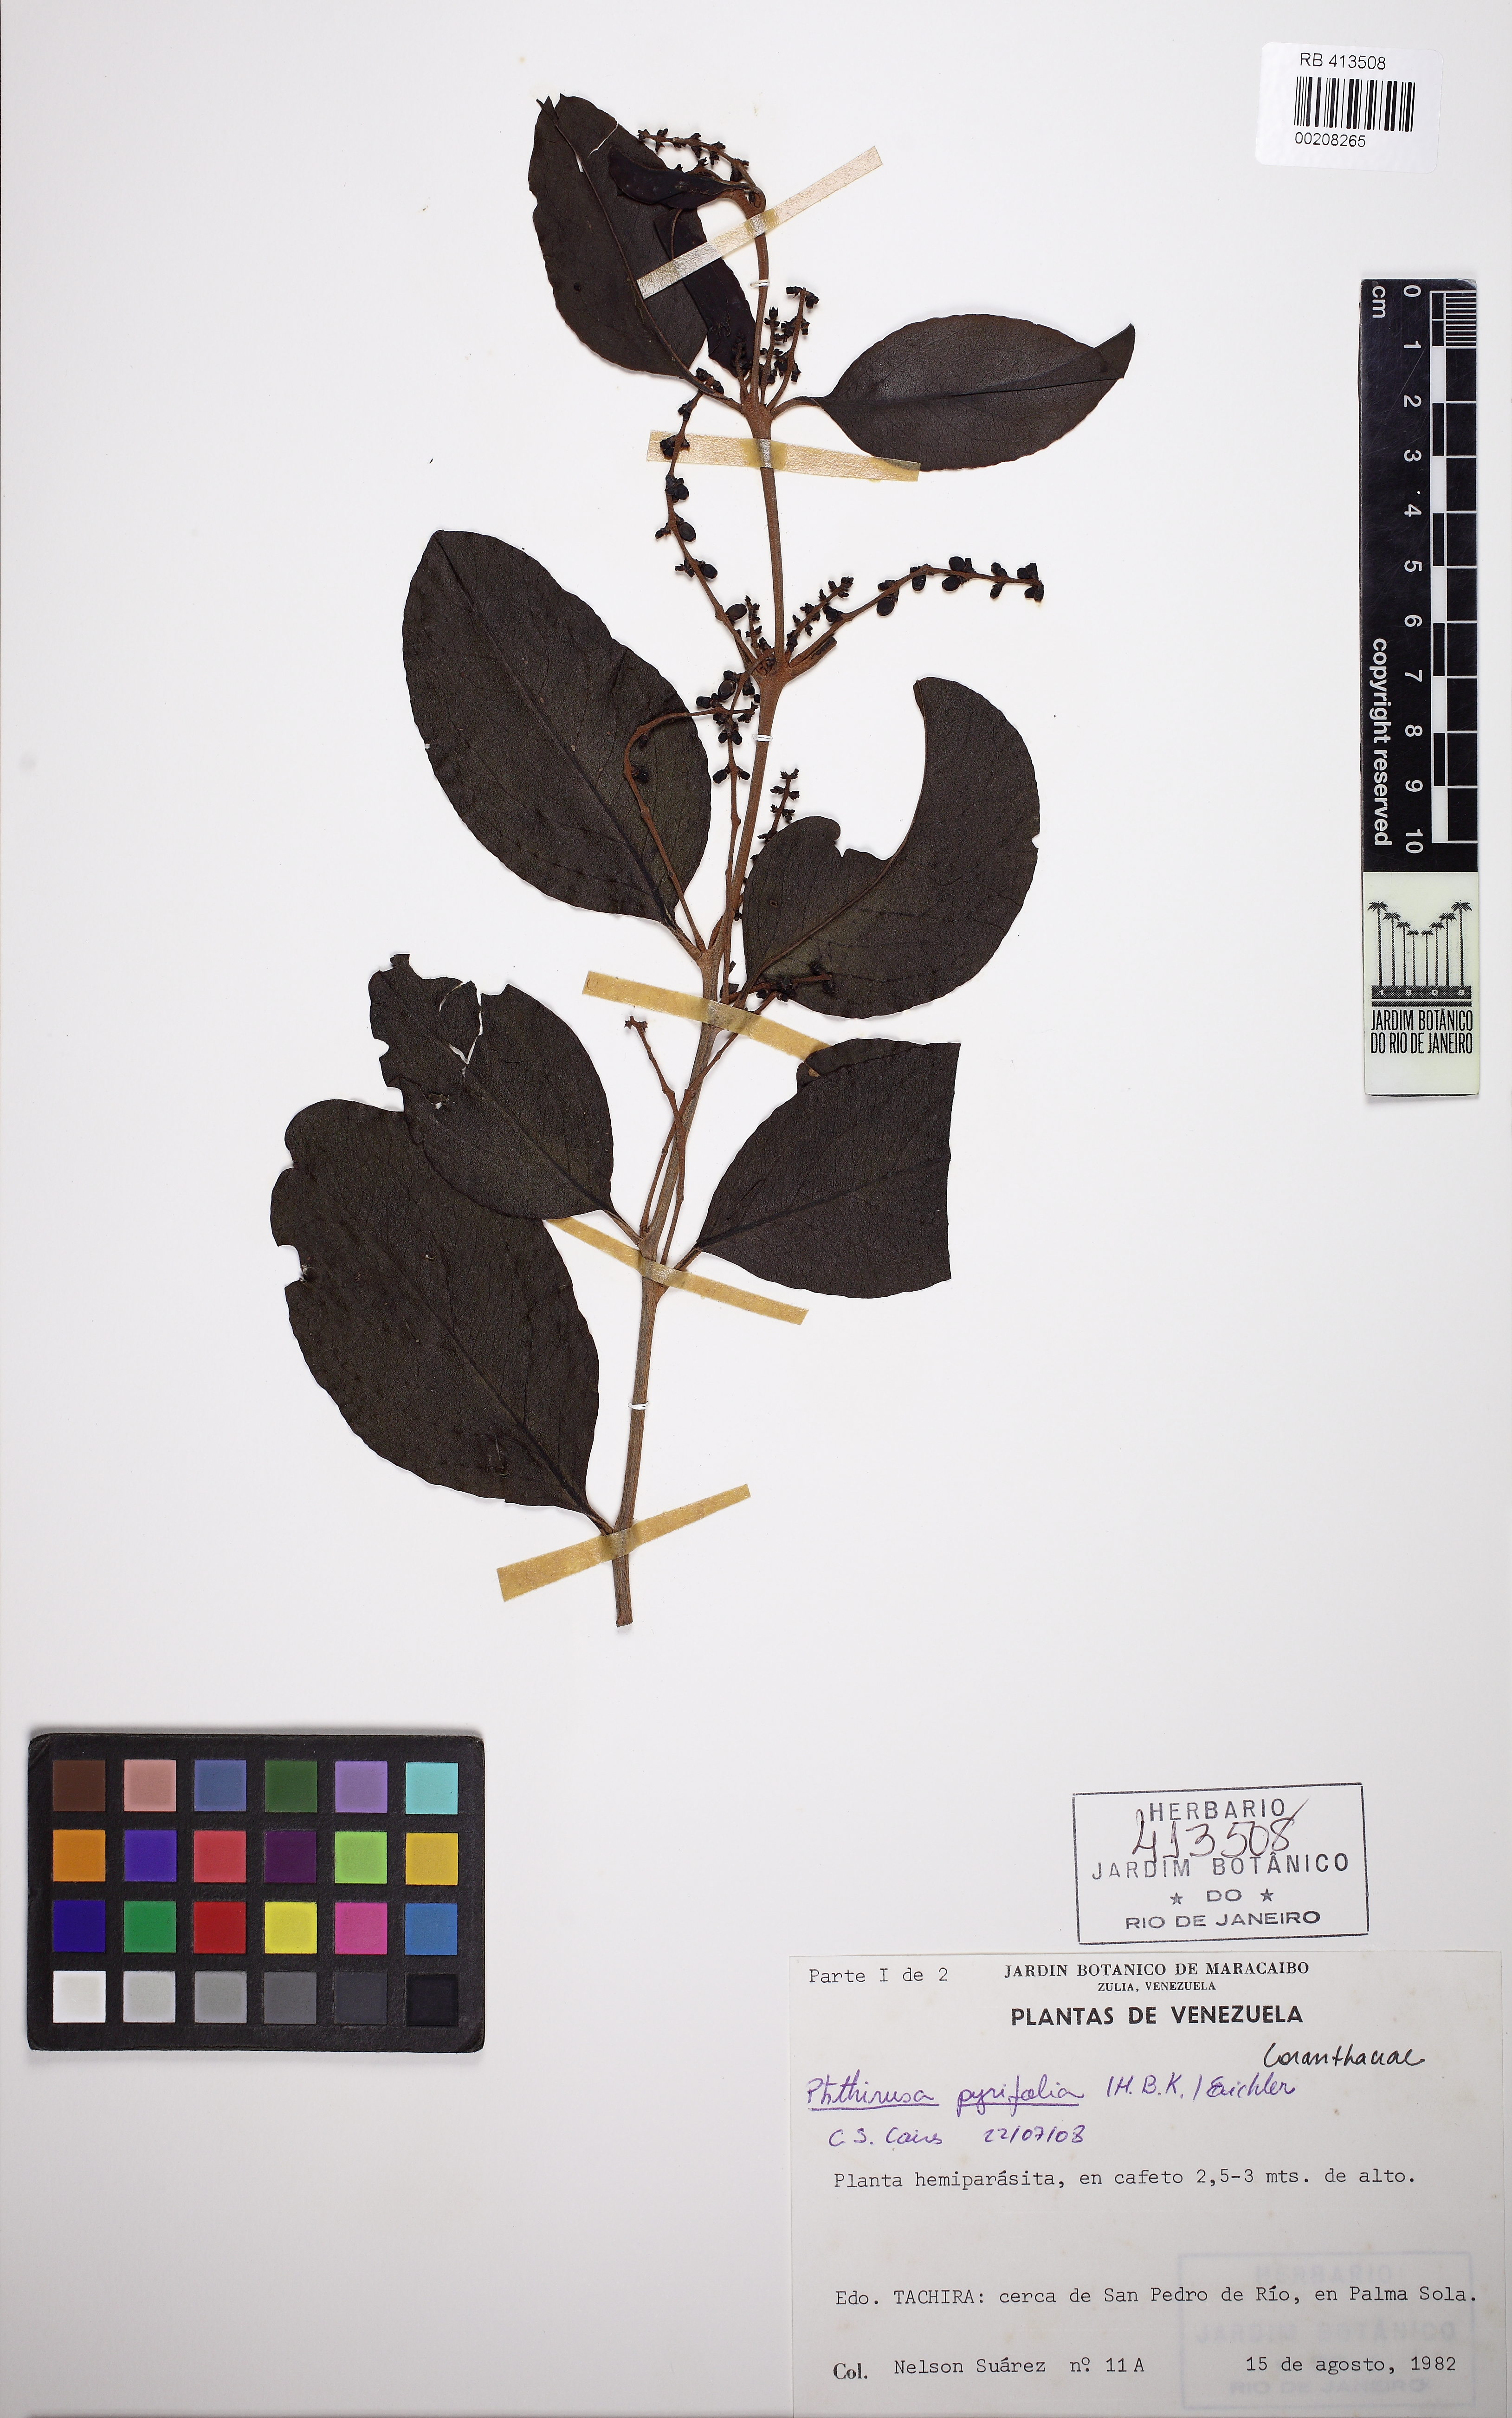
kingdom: Plantae
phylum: Tracheophyta
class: Magnoliopsida
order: Santalales
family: Loranthaceae
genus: Passovia
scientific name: Passovia pyrifolia
